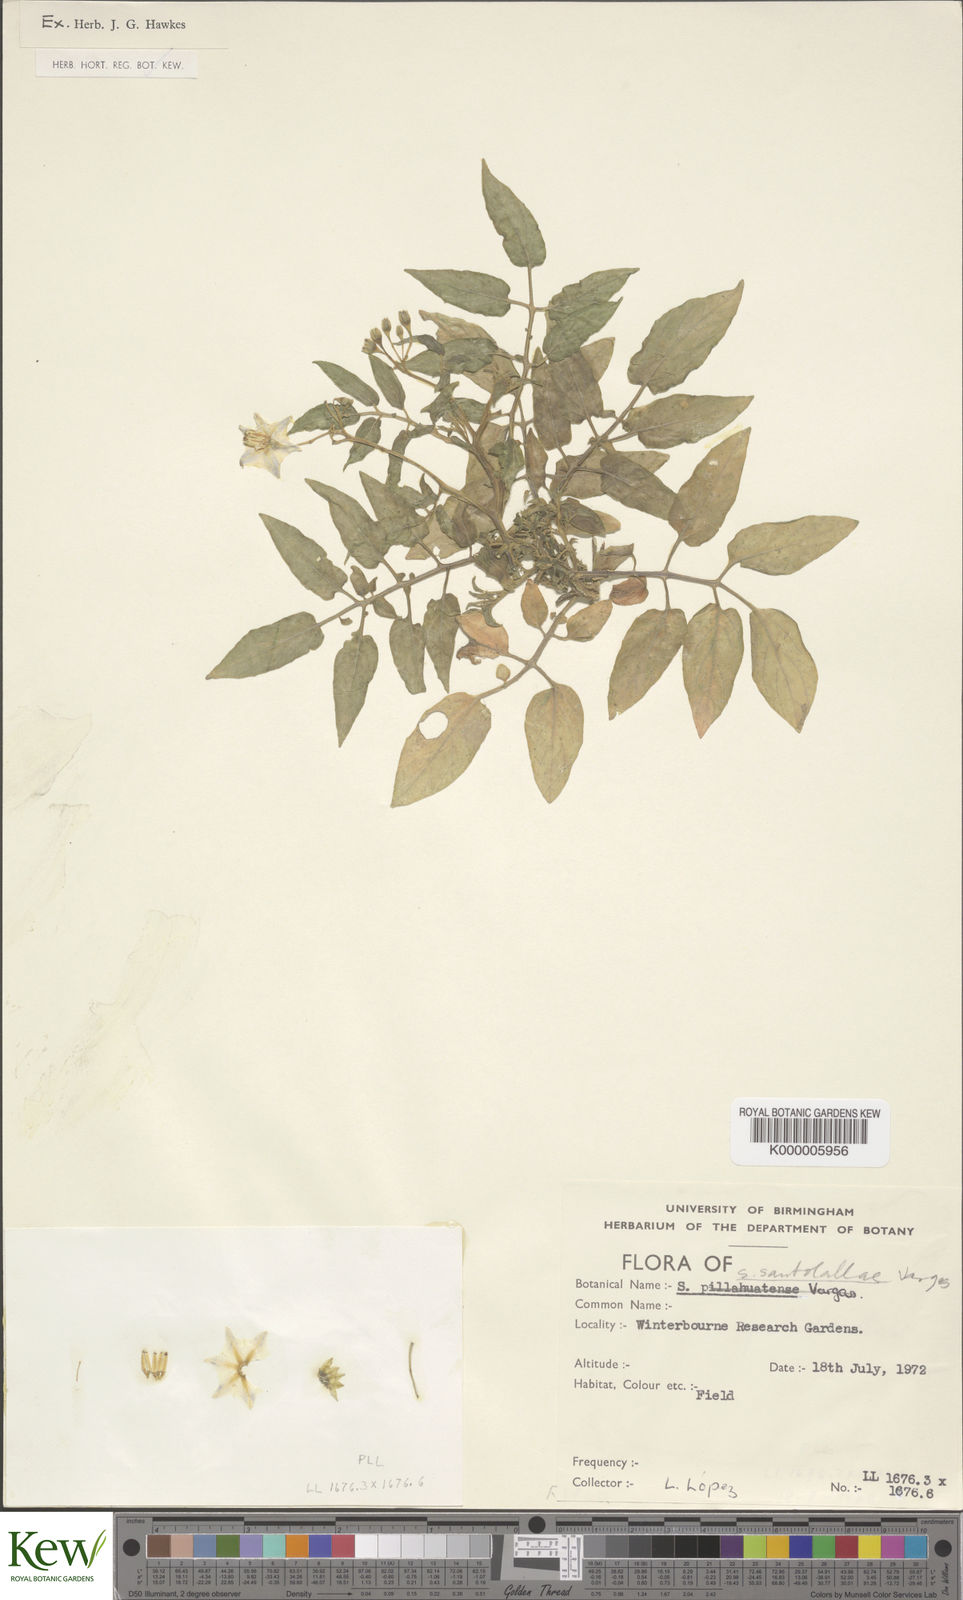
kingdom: Plantae
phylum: Tracheophyta
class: Magnoliopsida
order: Solanales
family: Solanaceae
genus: Solanum
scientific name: Solanum laxissimum
